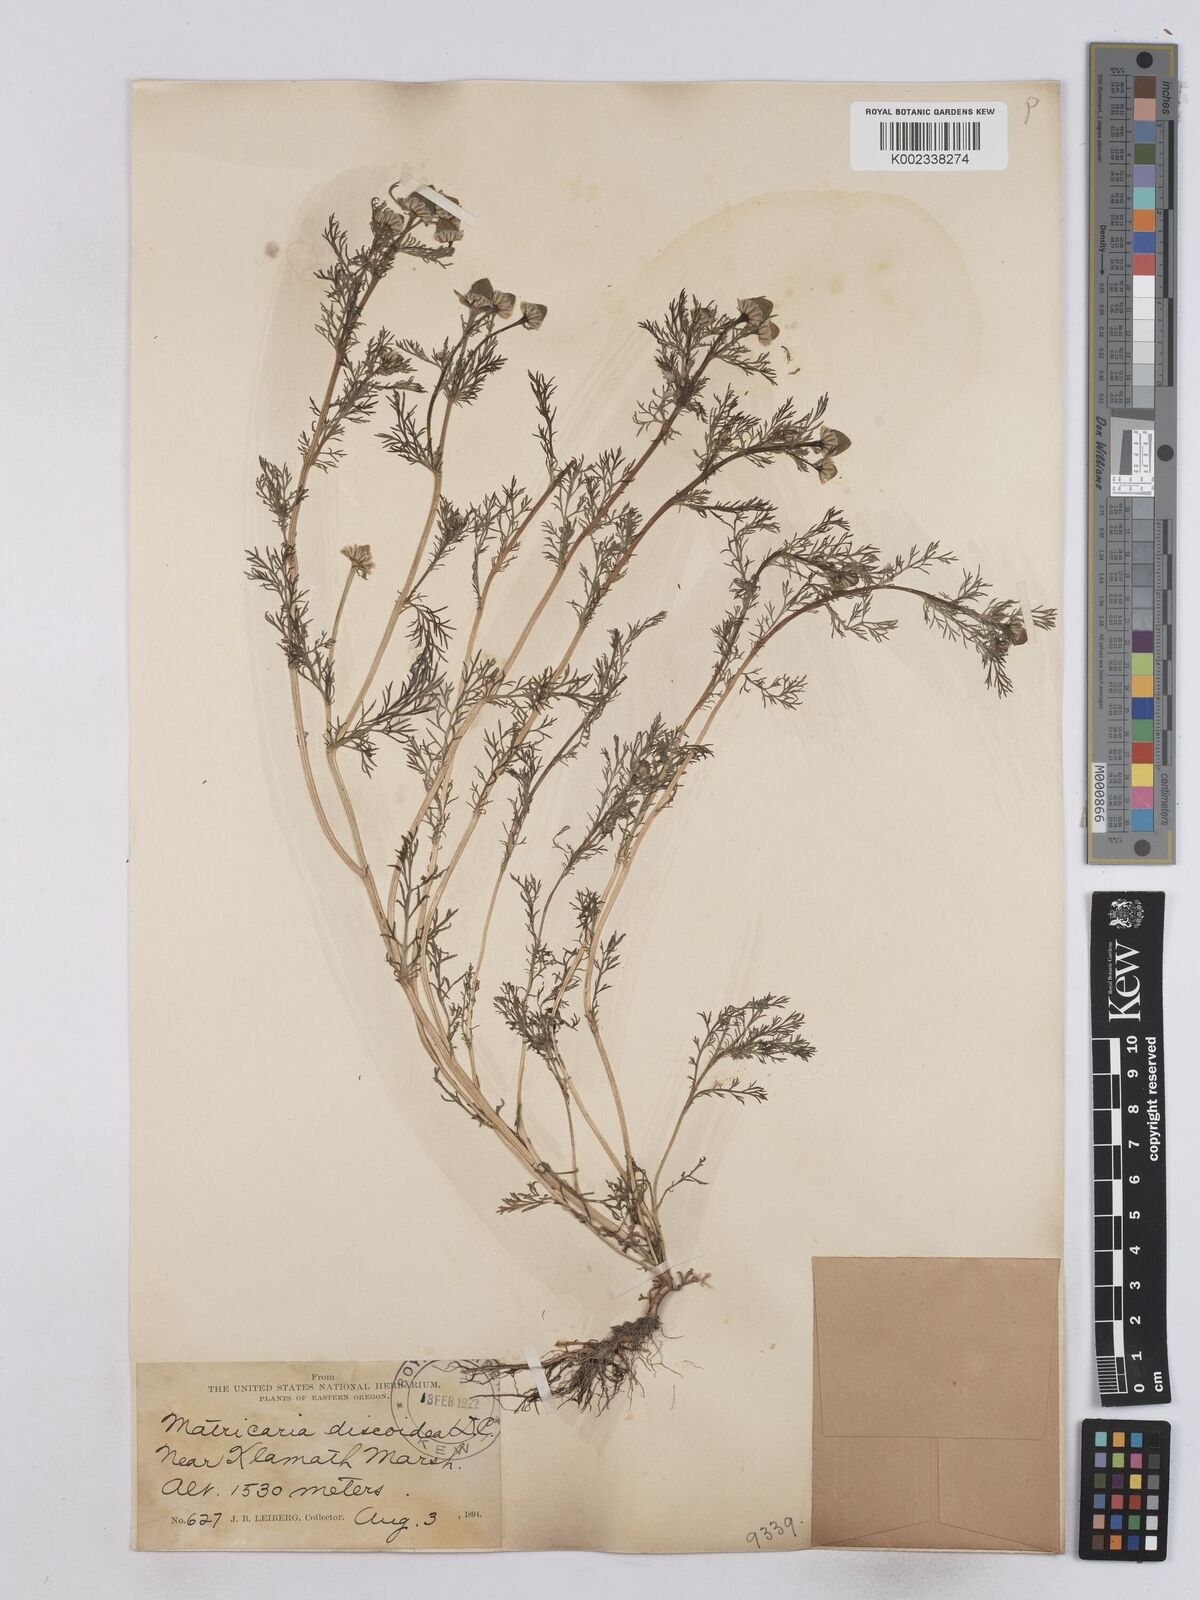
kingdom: Plantae
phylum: Tracheophyta
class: Magnoliopsida
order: Asterales
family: Asteraceae
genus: Matricaria
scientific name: Matricaria discoidea
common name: Disc mayweed
